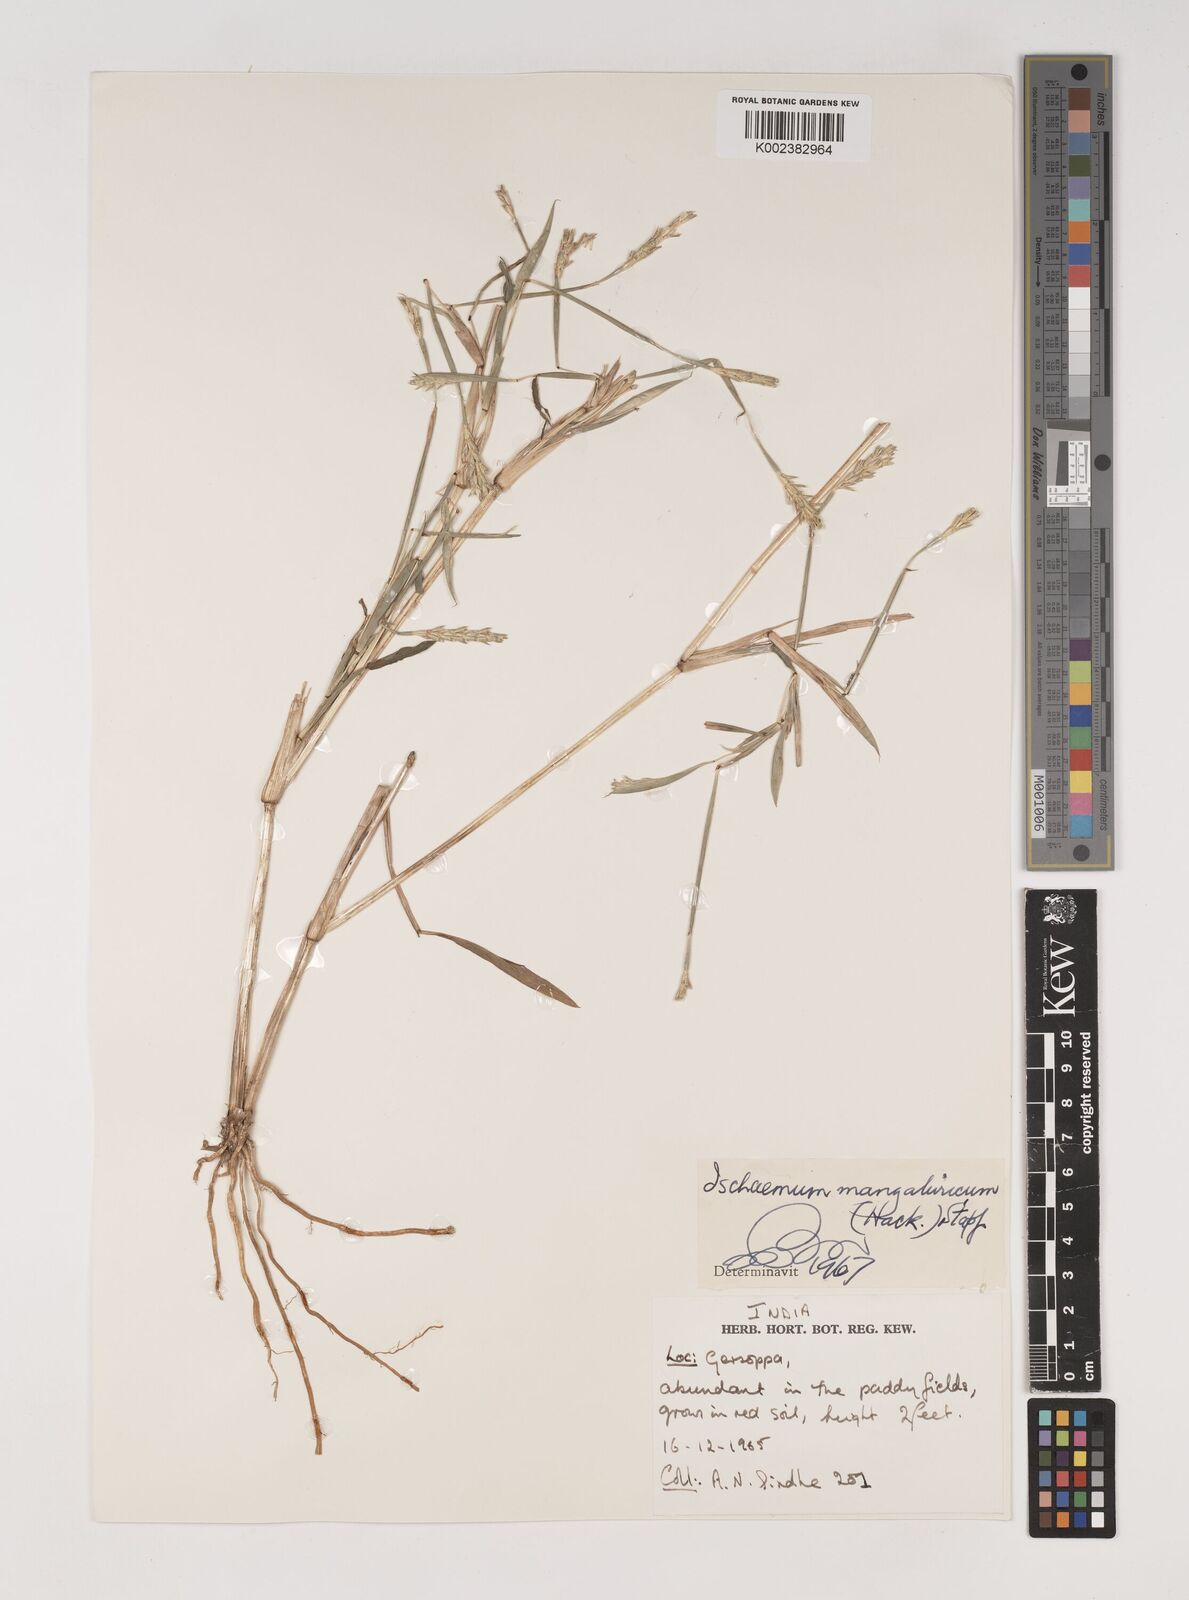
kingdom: Plantae
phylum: Tracheophyta
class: Liliopsida
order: Poales
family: Poaceae
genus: Ischaemum
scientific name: Ischaemum barbatum
